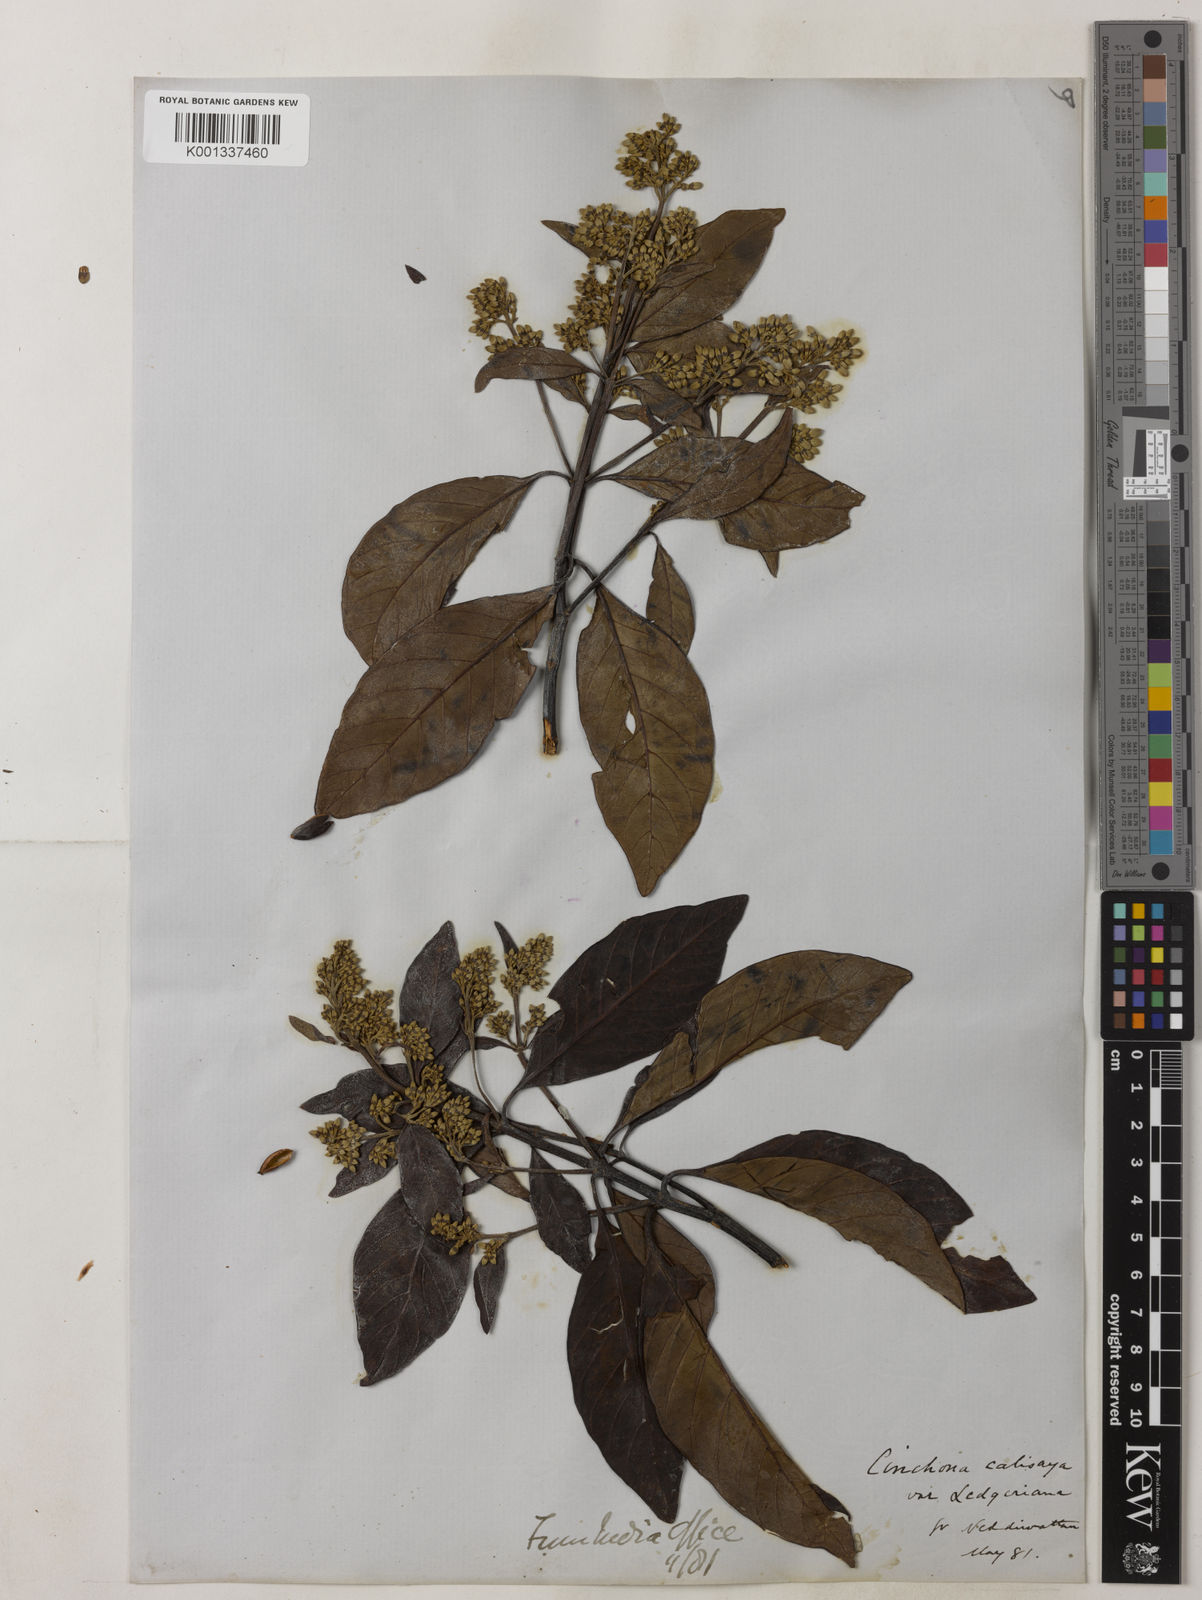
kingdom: Plantae
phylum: Tracheophyta
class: Magnoliopsida
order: Gentianales
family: Rubiaceae
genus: Cinchona
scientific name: Cinchona calisaya
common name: Ledgerbark
